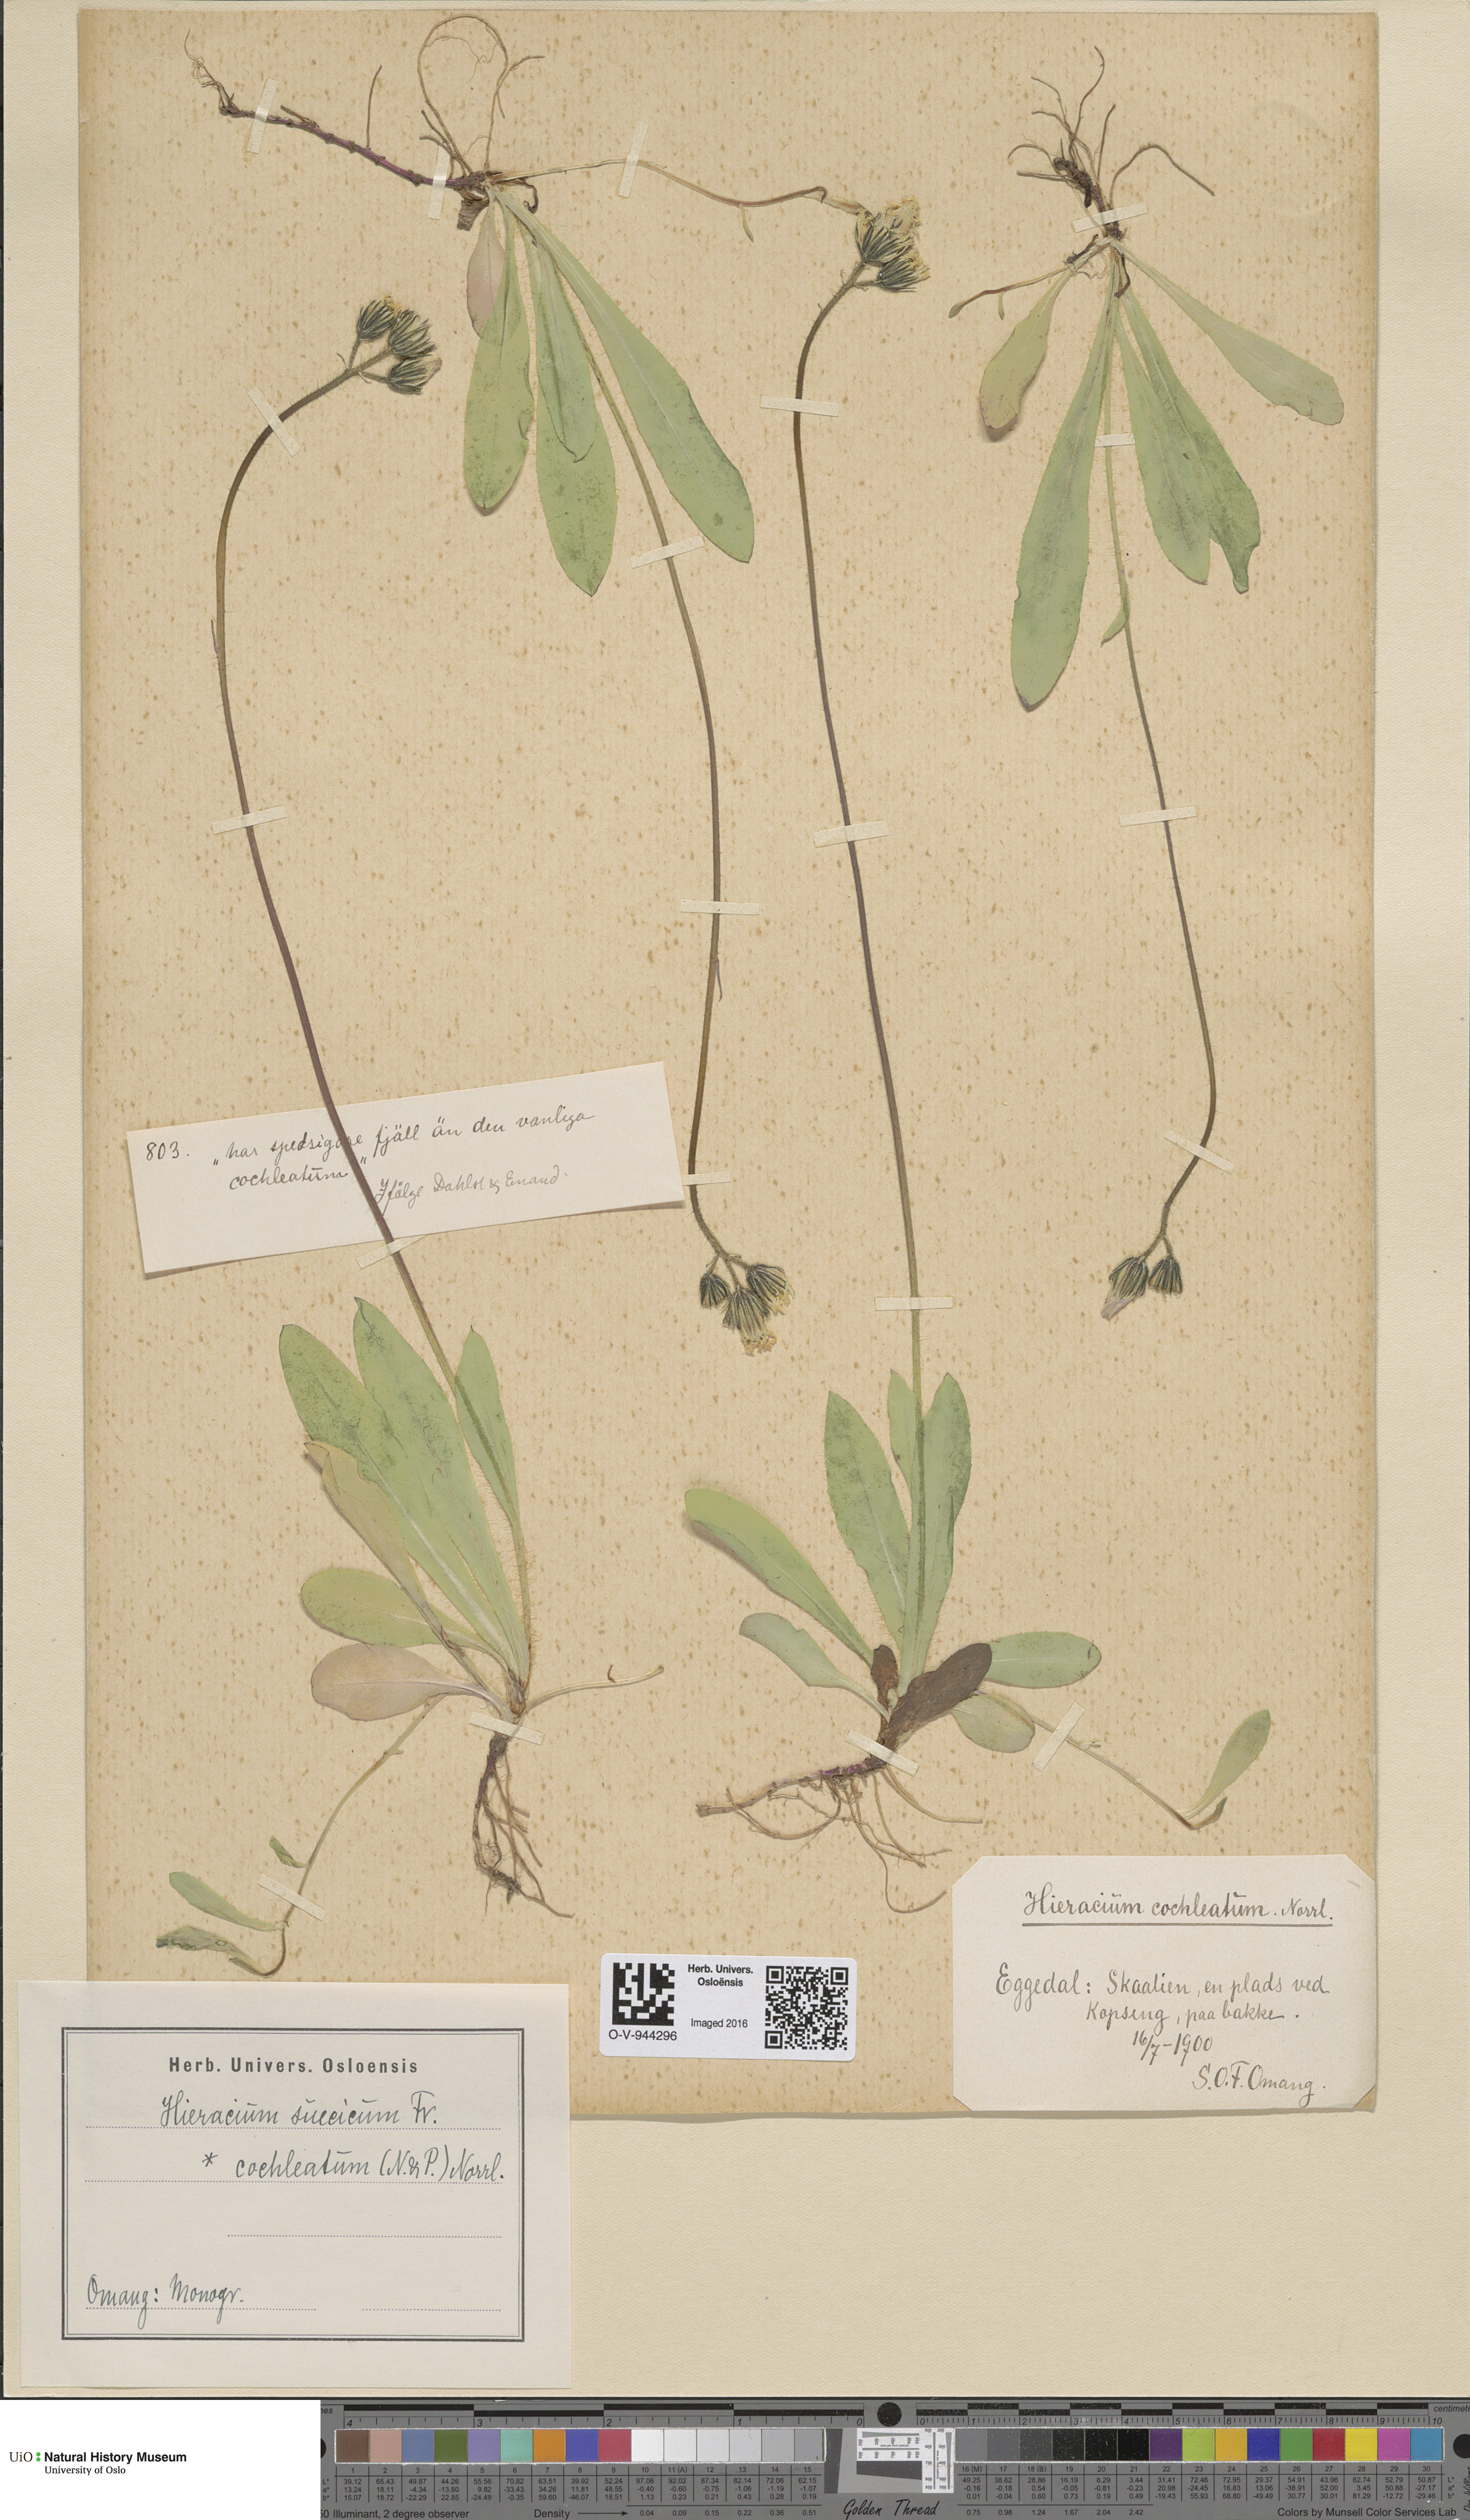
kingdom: Plantae
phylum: Tracheophyta
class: Magnoliopsida
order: Asterales
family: Asteraceae
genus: Pilosella
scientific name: Pilosella dubia
